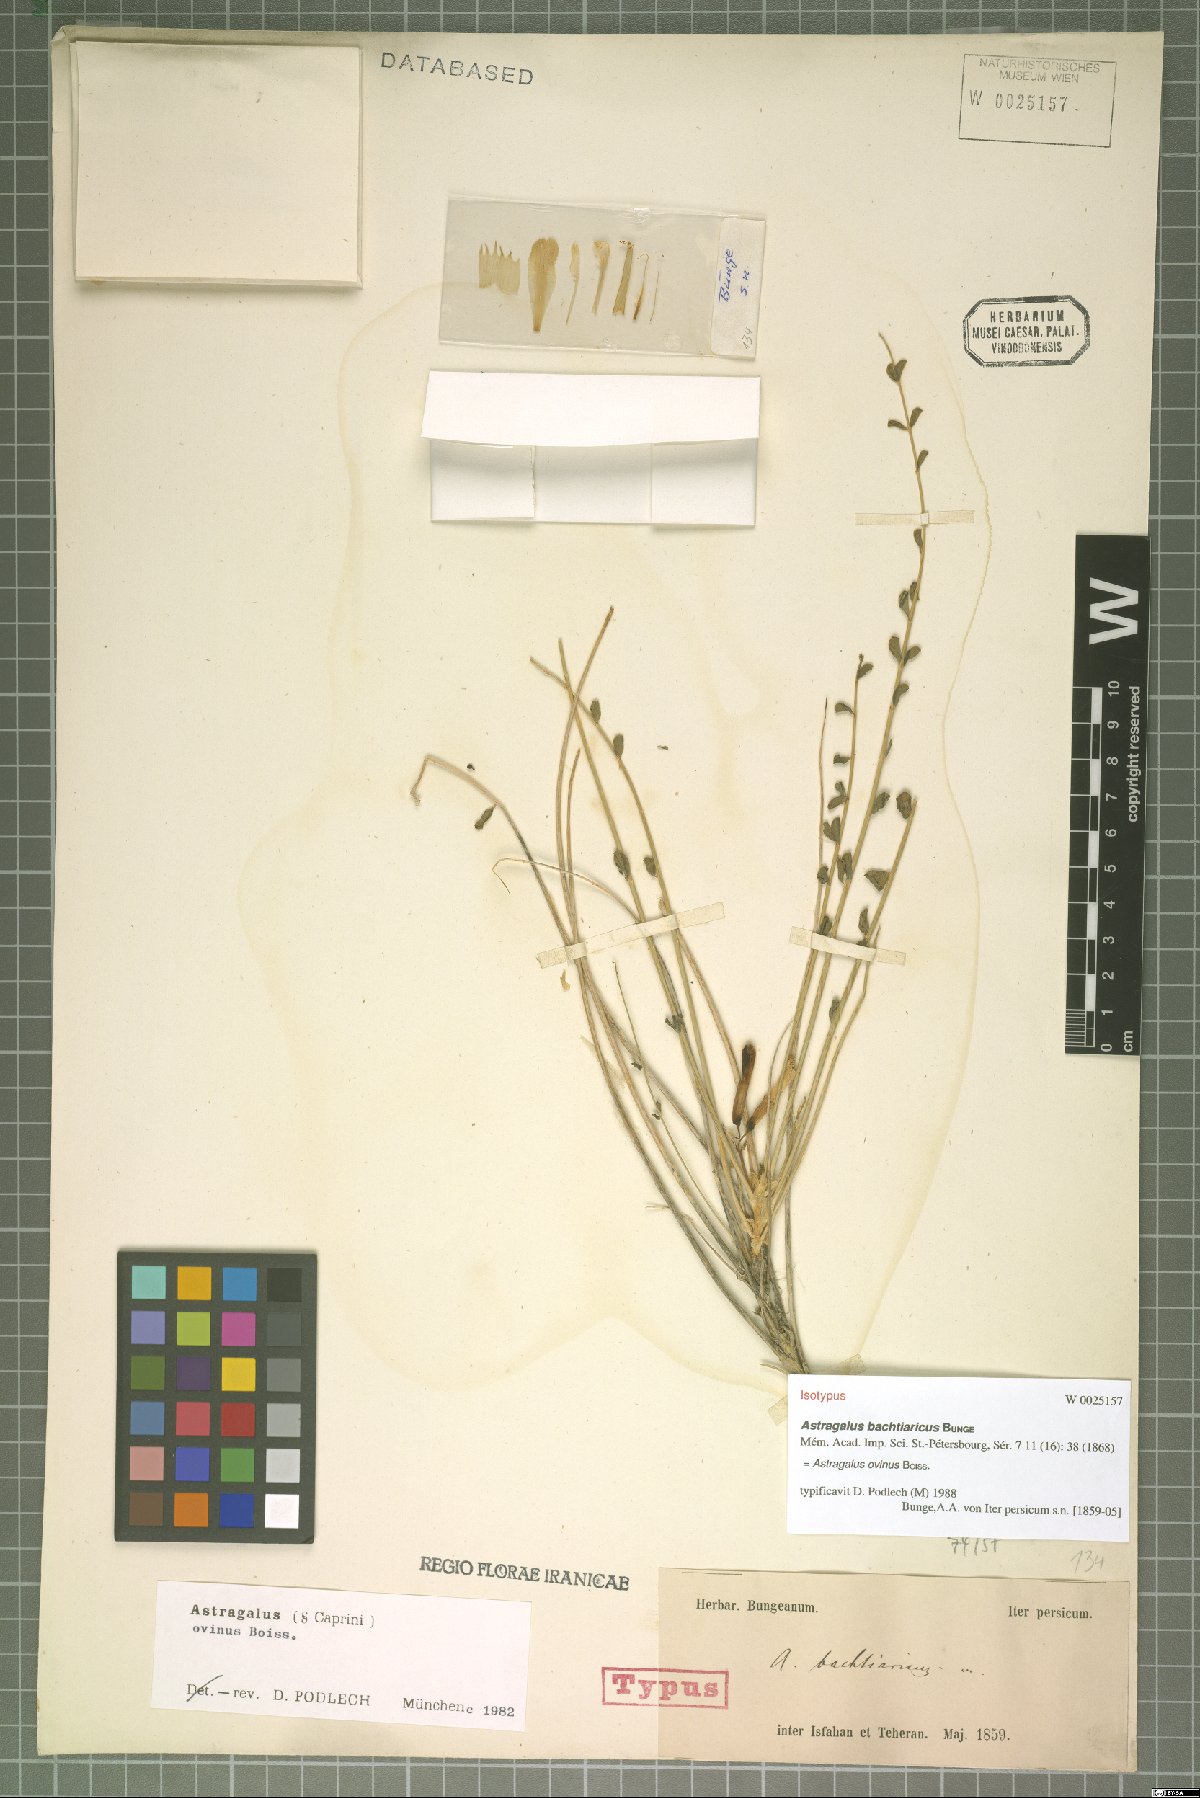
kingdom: Plantae
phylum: Tracheophyta
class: Magnoliopsida
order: Fabales
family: Fabaceae
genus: Astragalus
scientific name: Astragalus ovinus
